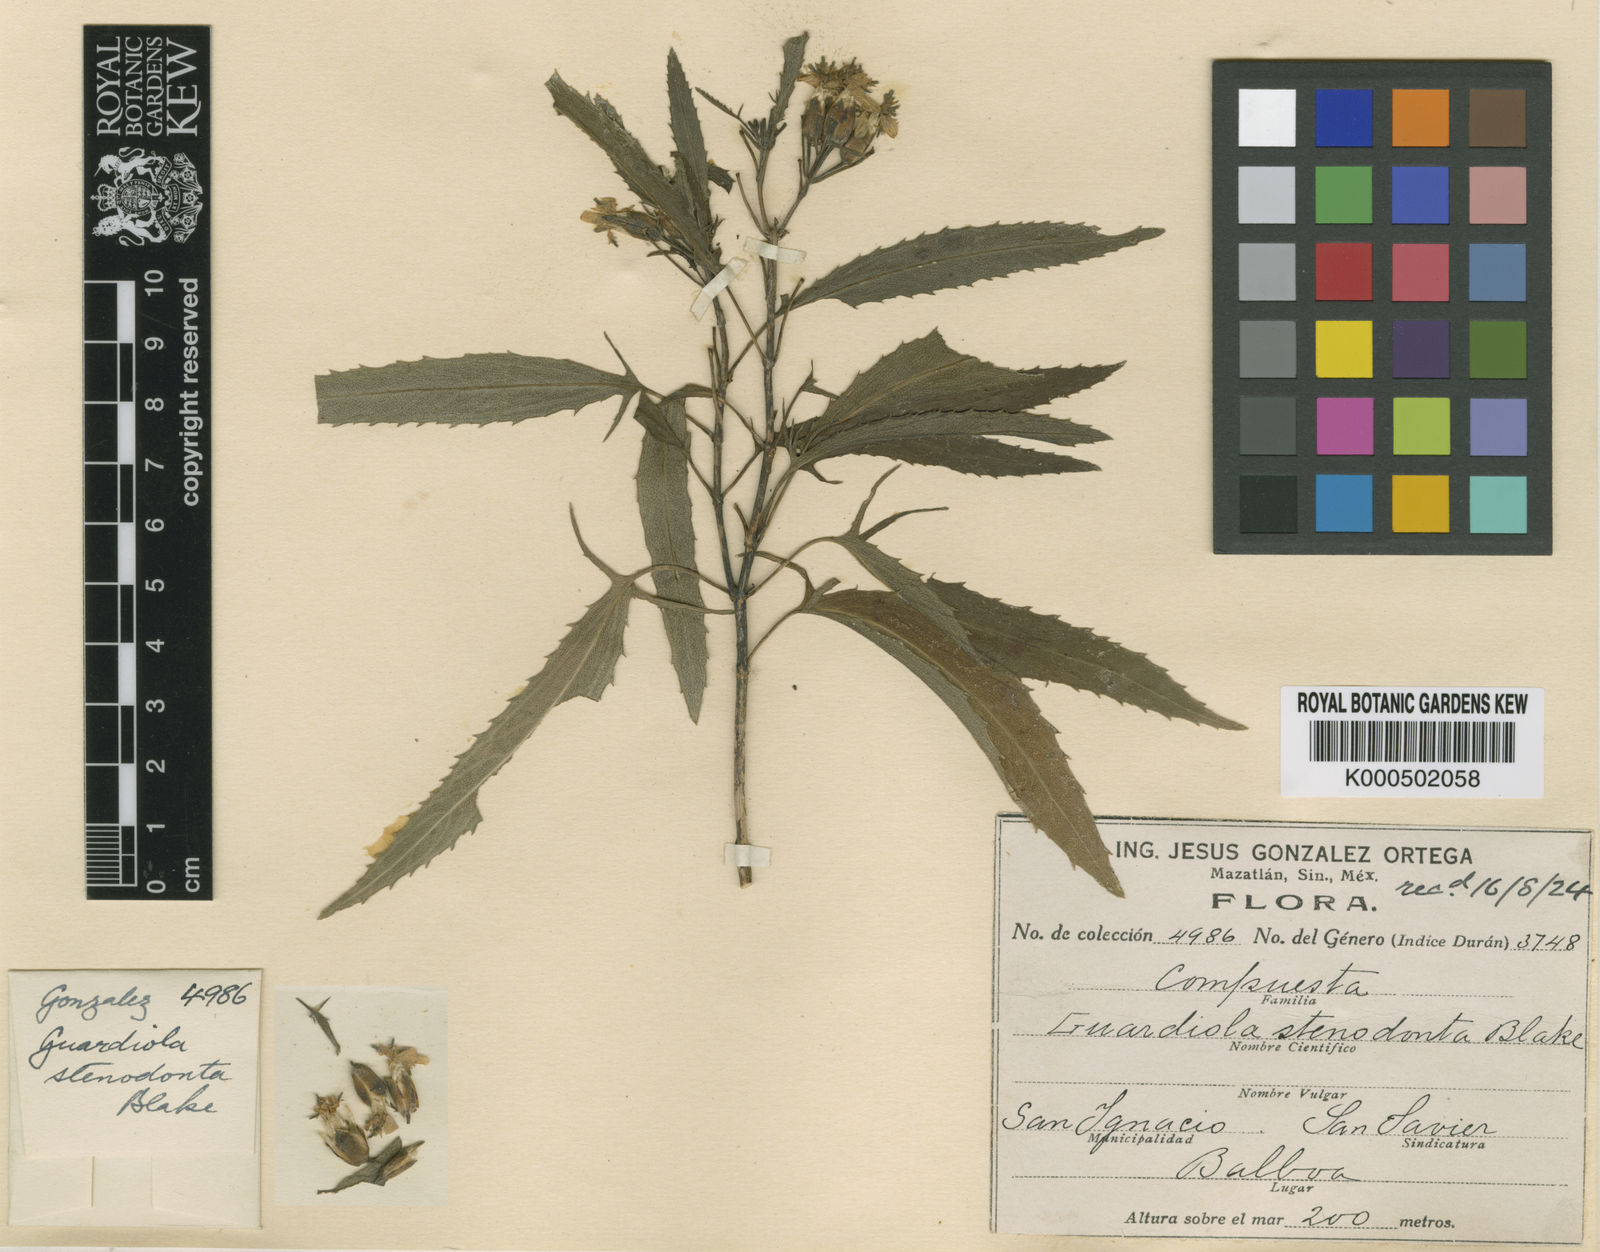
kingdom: Plantae
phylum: Tracheophyta
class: Magnoliopsida
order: Asterales
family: Asteraceae
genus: Guardiola
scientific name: Guardiola stenodonta
